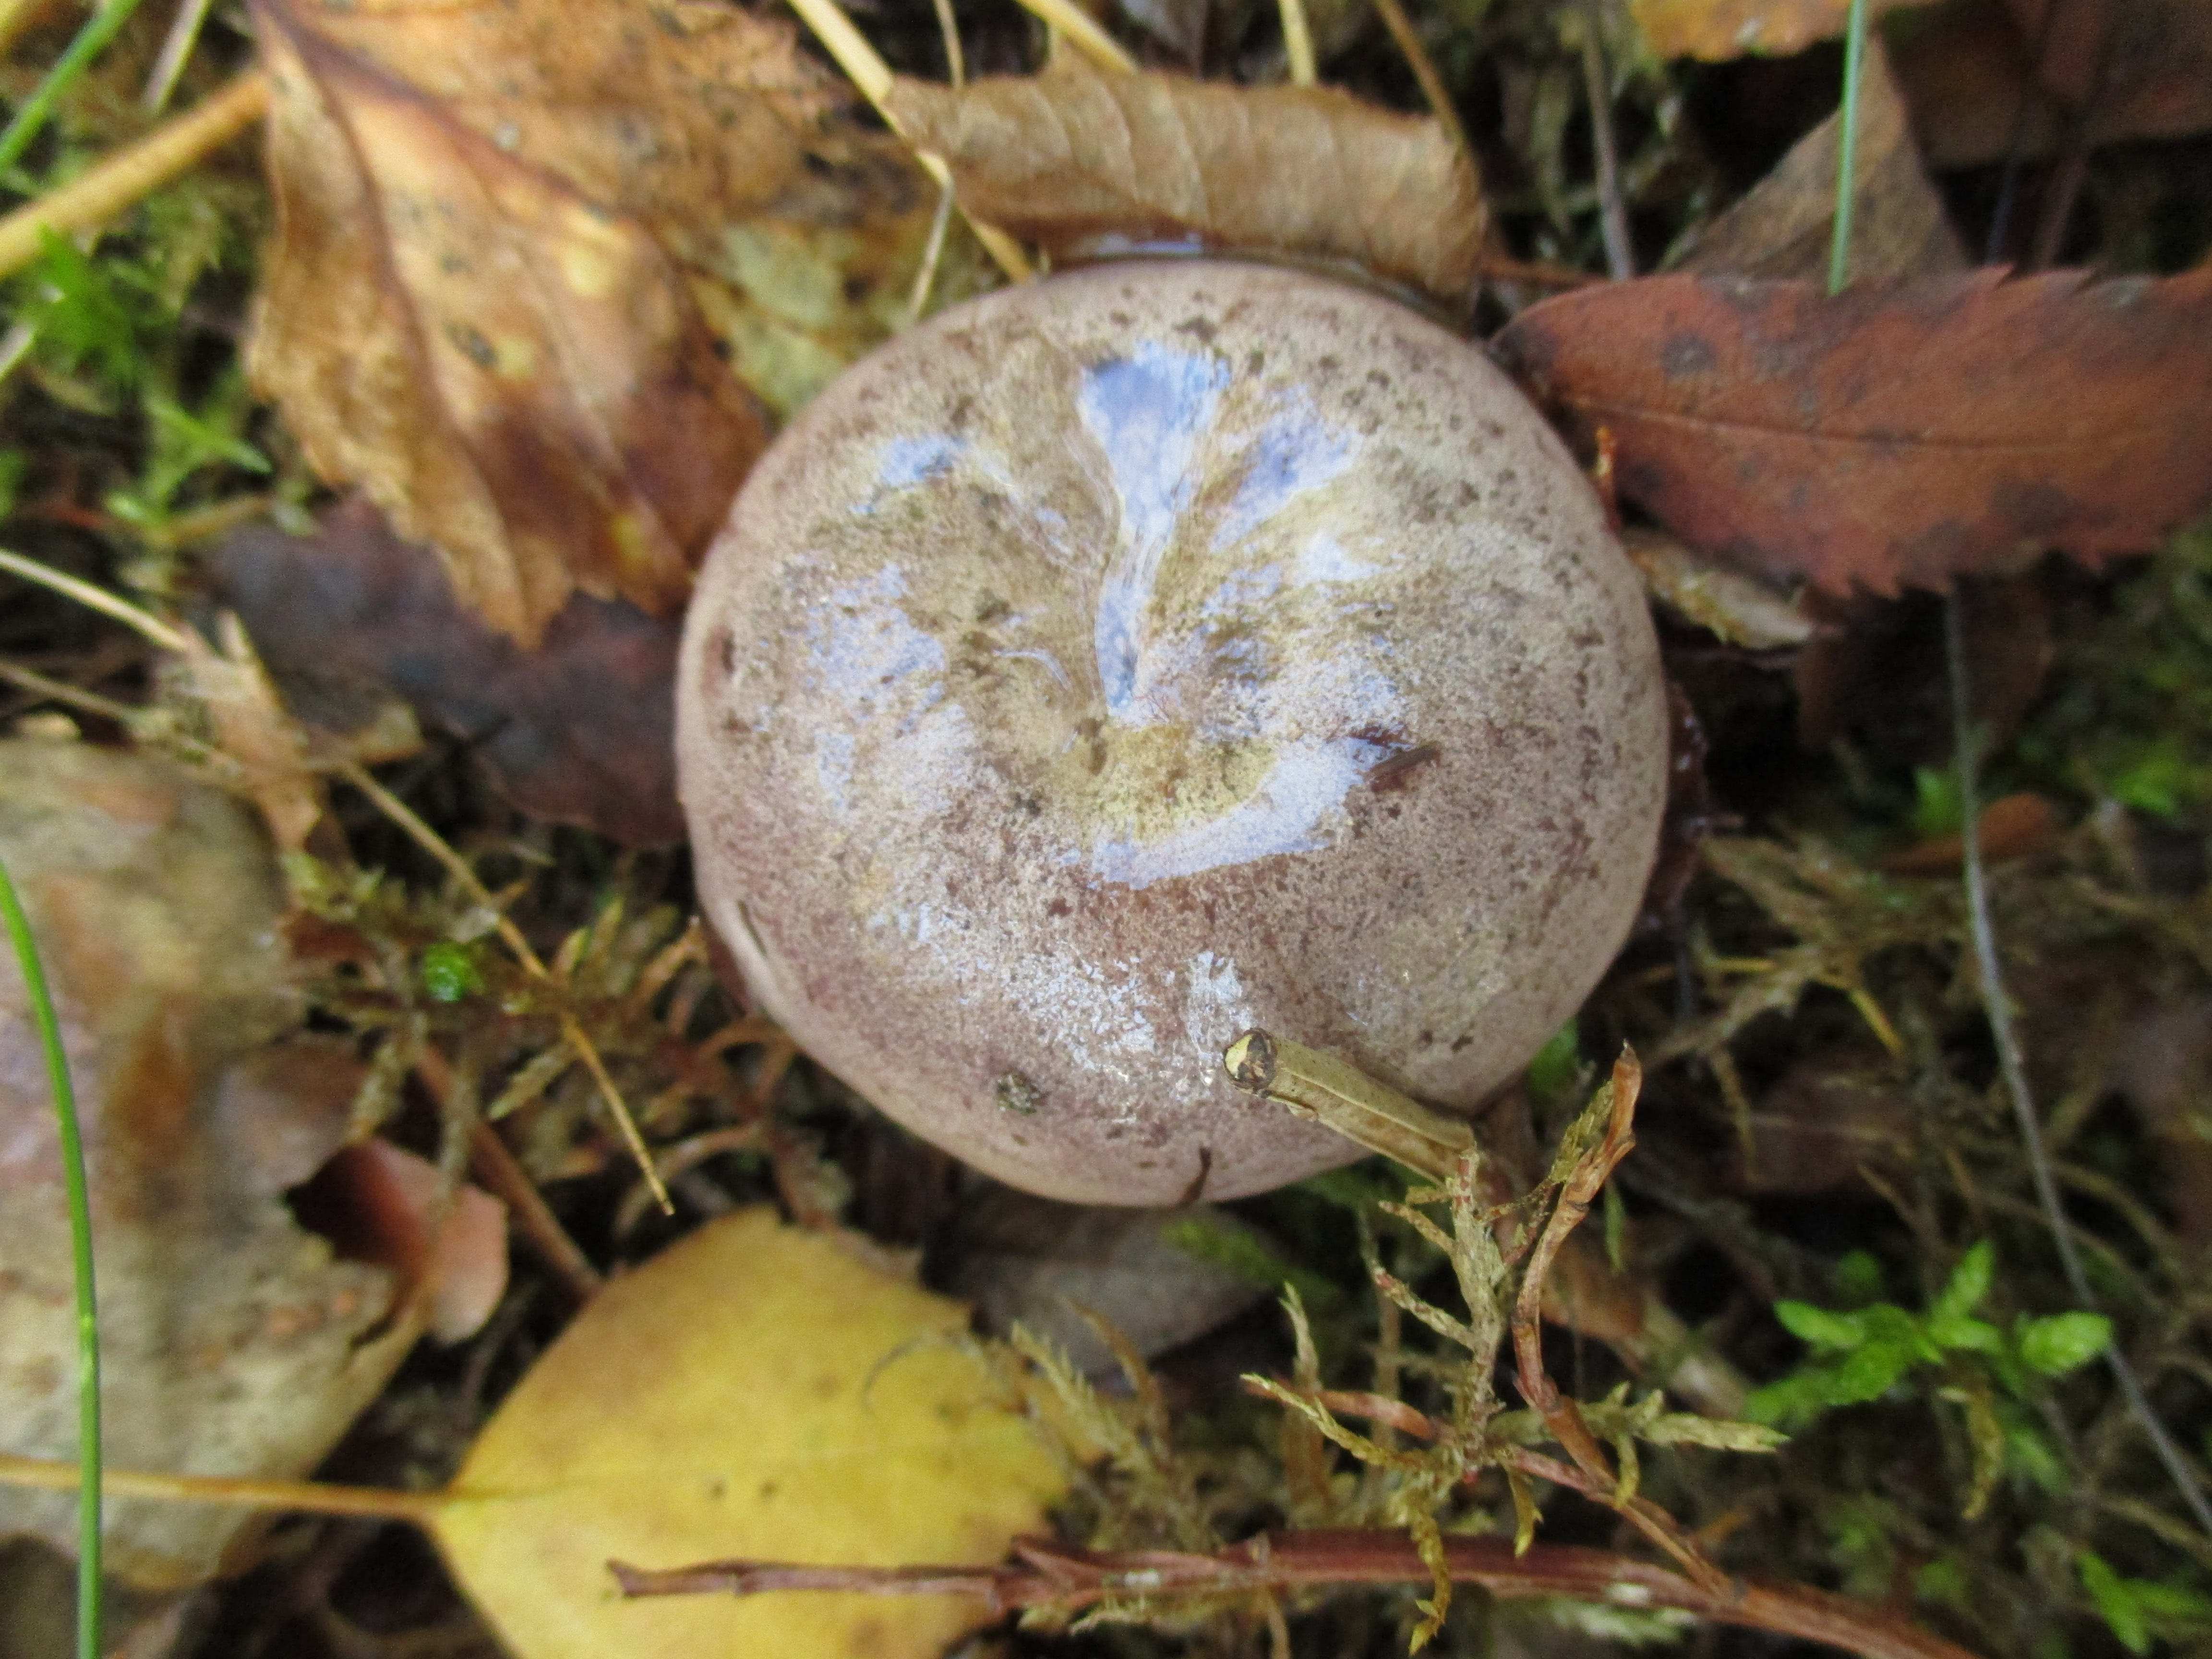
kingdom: Fungi
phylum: Basidiomycota
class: Agaricomycetes
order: Russulales
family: Russulaceae
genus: Lactarius
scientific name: Lactarius trivialis
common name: Tacked milkcap
